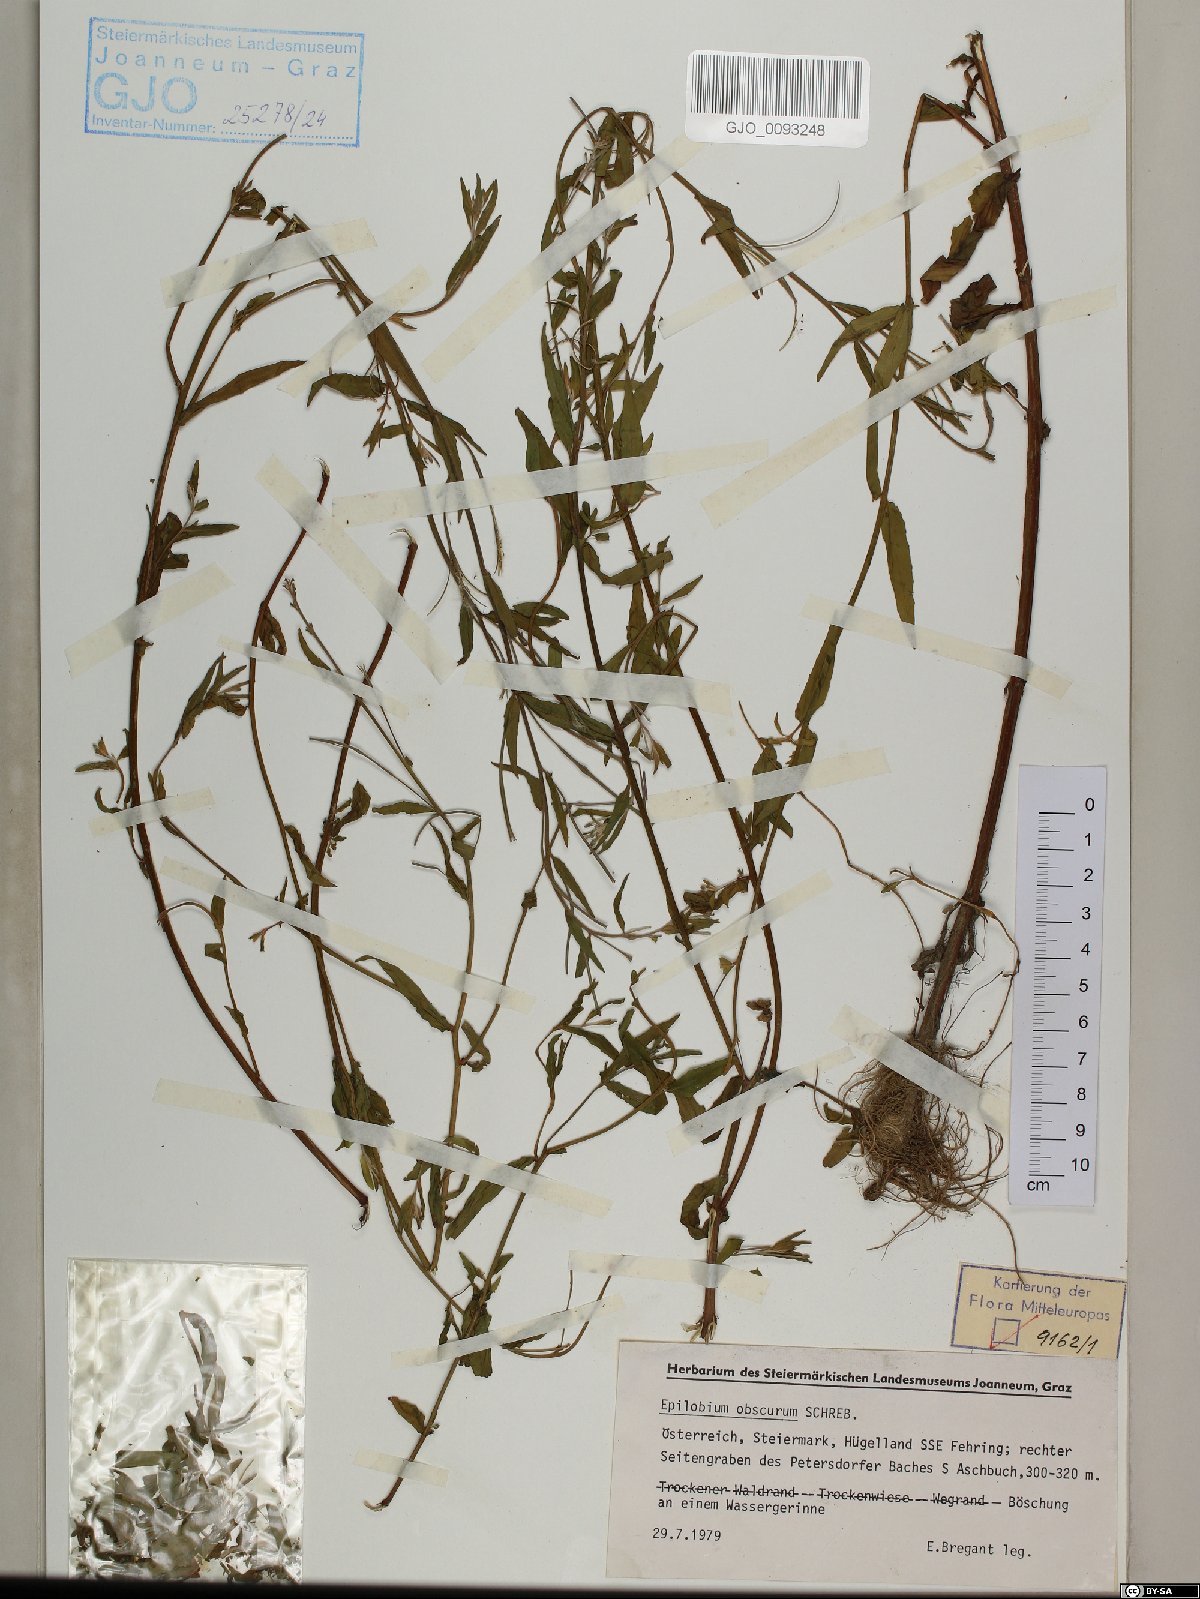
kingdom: Plantae
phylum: Tracheophyta
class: Magnoliopsida
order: Myrtales
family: Onagraceae
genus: Epilobium
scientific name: Epilobium obscurum
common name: Short-fruited willowherb
